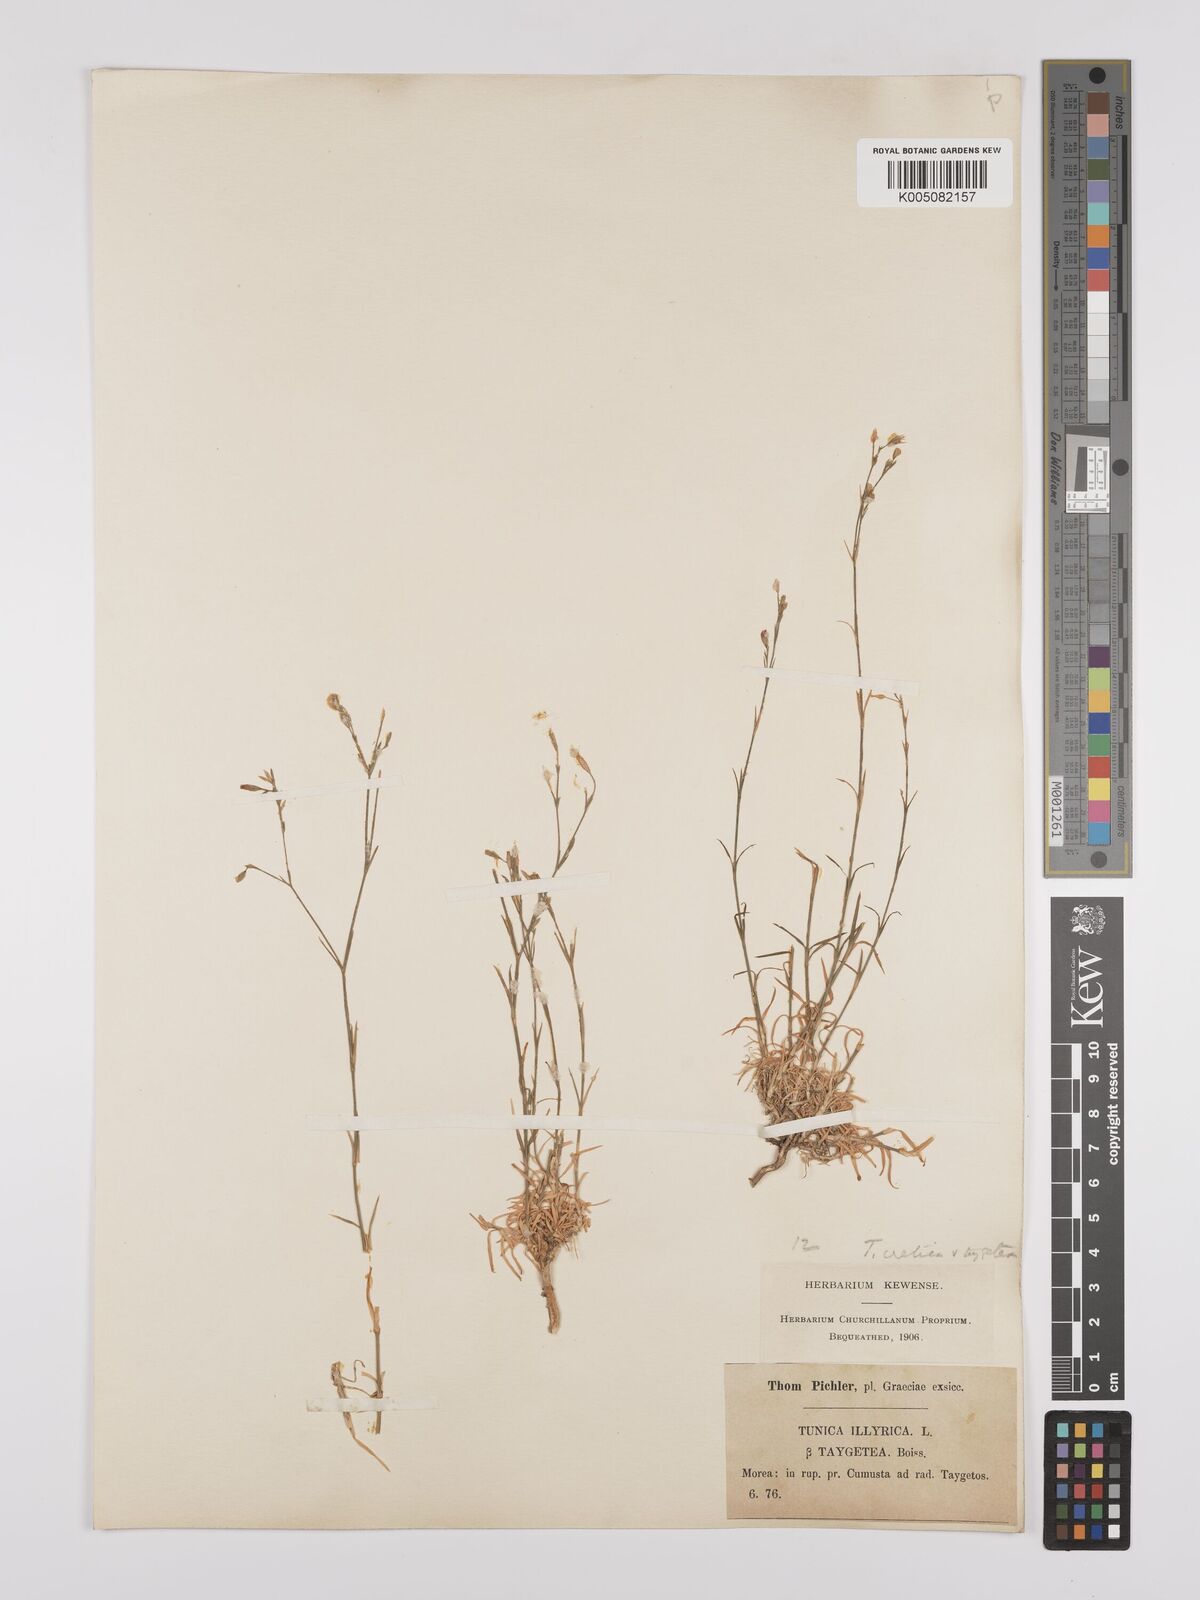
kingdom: Plantae
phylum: Tracheophyta
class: Magnoliopsida
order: Caryophyllales
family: Caryophyllaceae
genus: Petrorhagia
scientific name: Petrorhagia cretica
